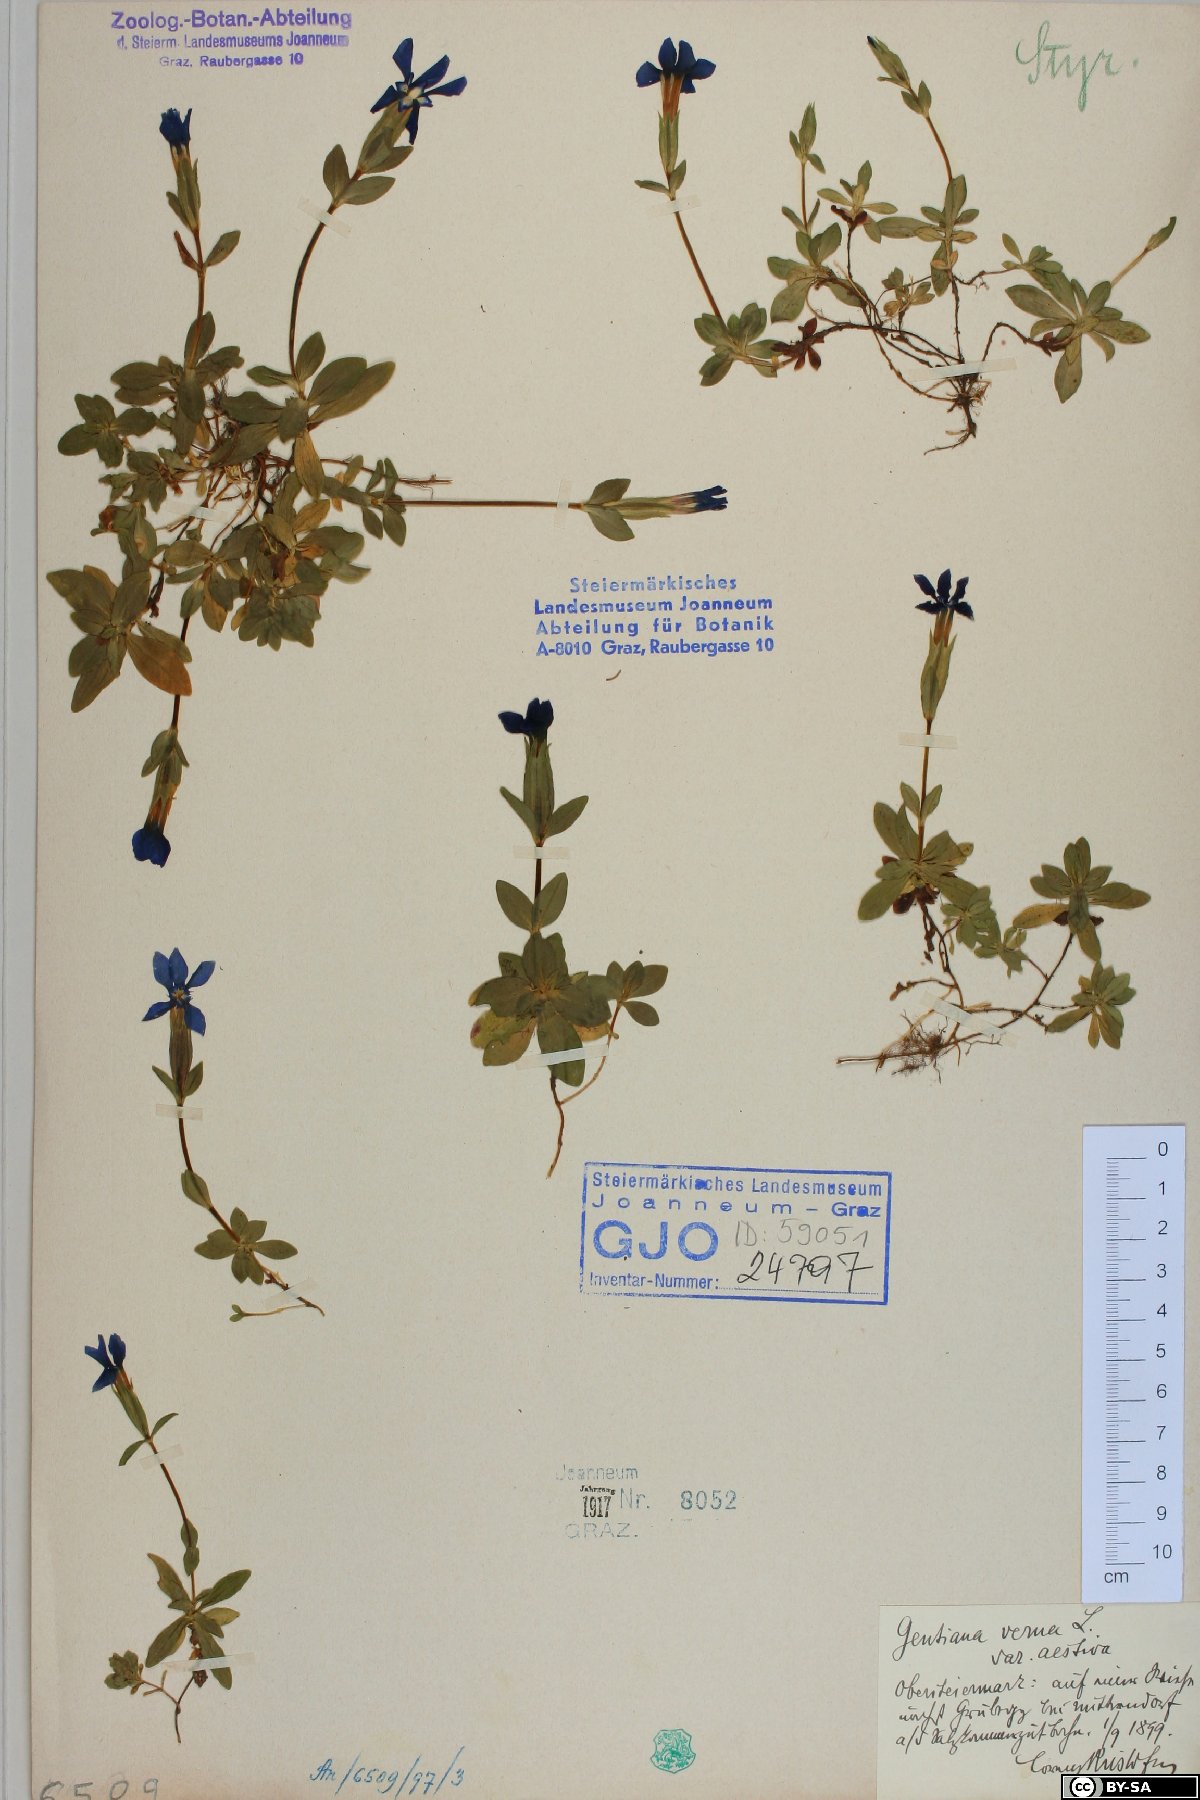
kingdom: Plantae
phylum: Tracheophyta
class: Magnoliopsida
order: Gentianales
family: Gentianaceae
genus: Gentiana
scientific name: Gentiana verna
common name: Spring gentian
